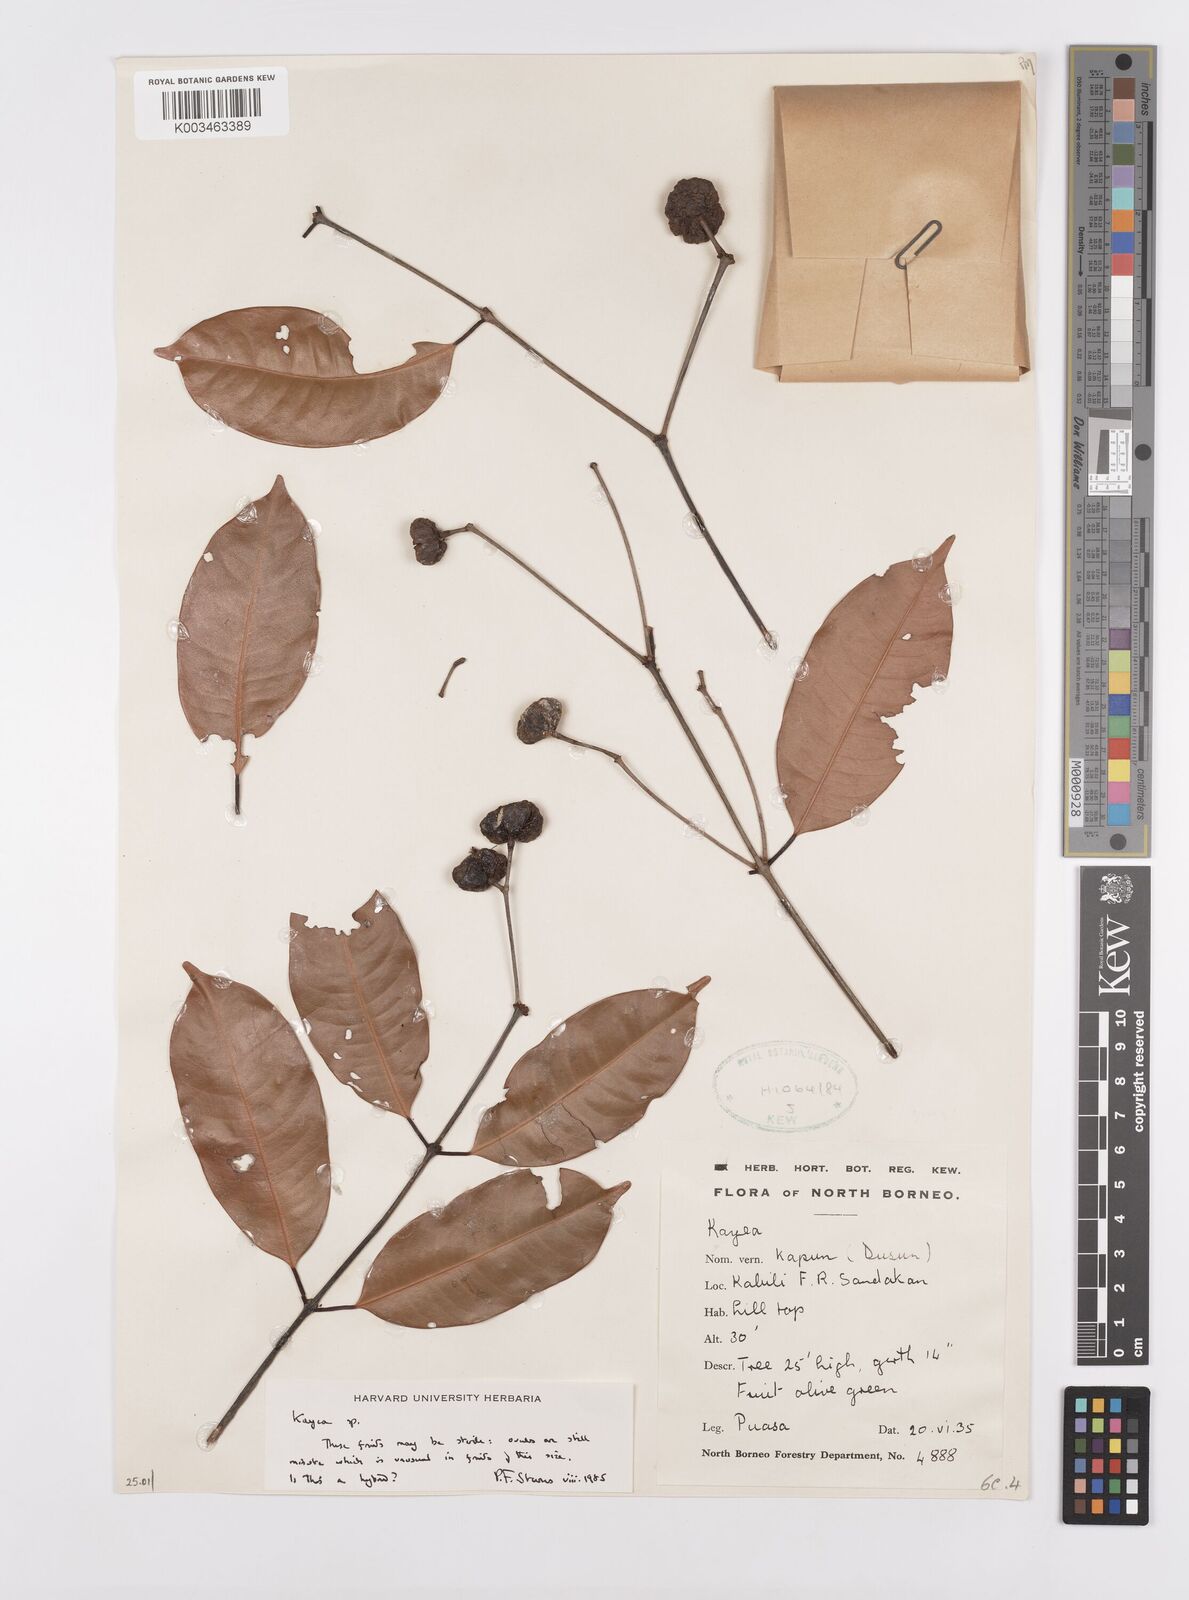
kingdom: Plantae
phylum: Tracheophyta
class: Magnoliopsida
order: Malpighiales
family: Calophyllaceae
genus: Kayea
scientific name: Kayea
